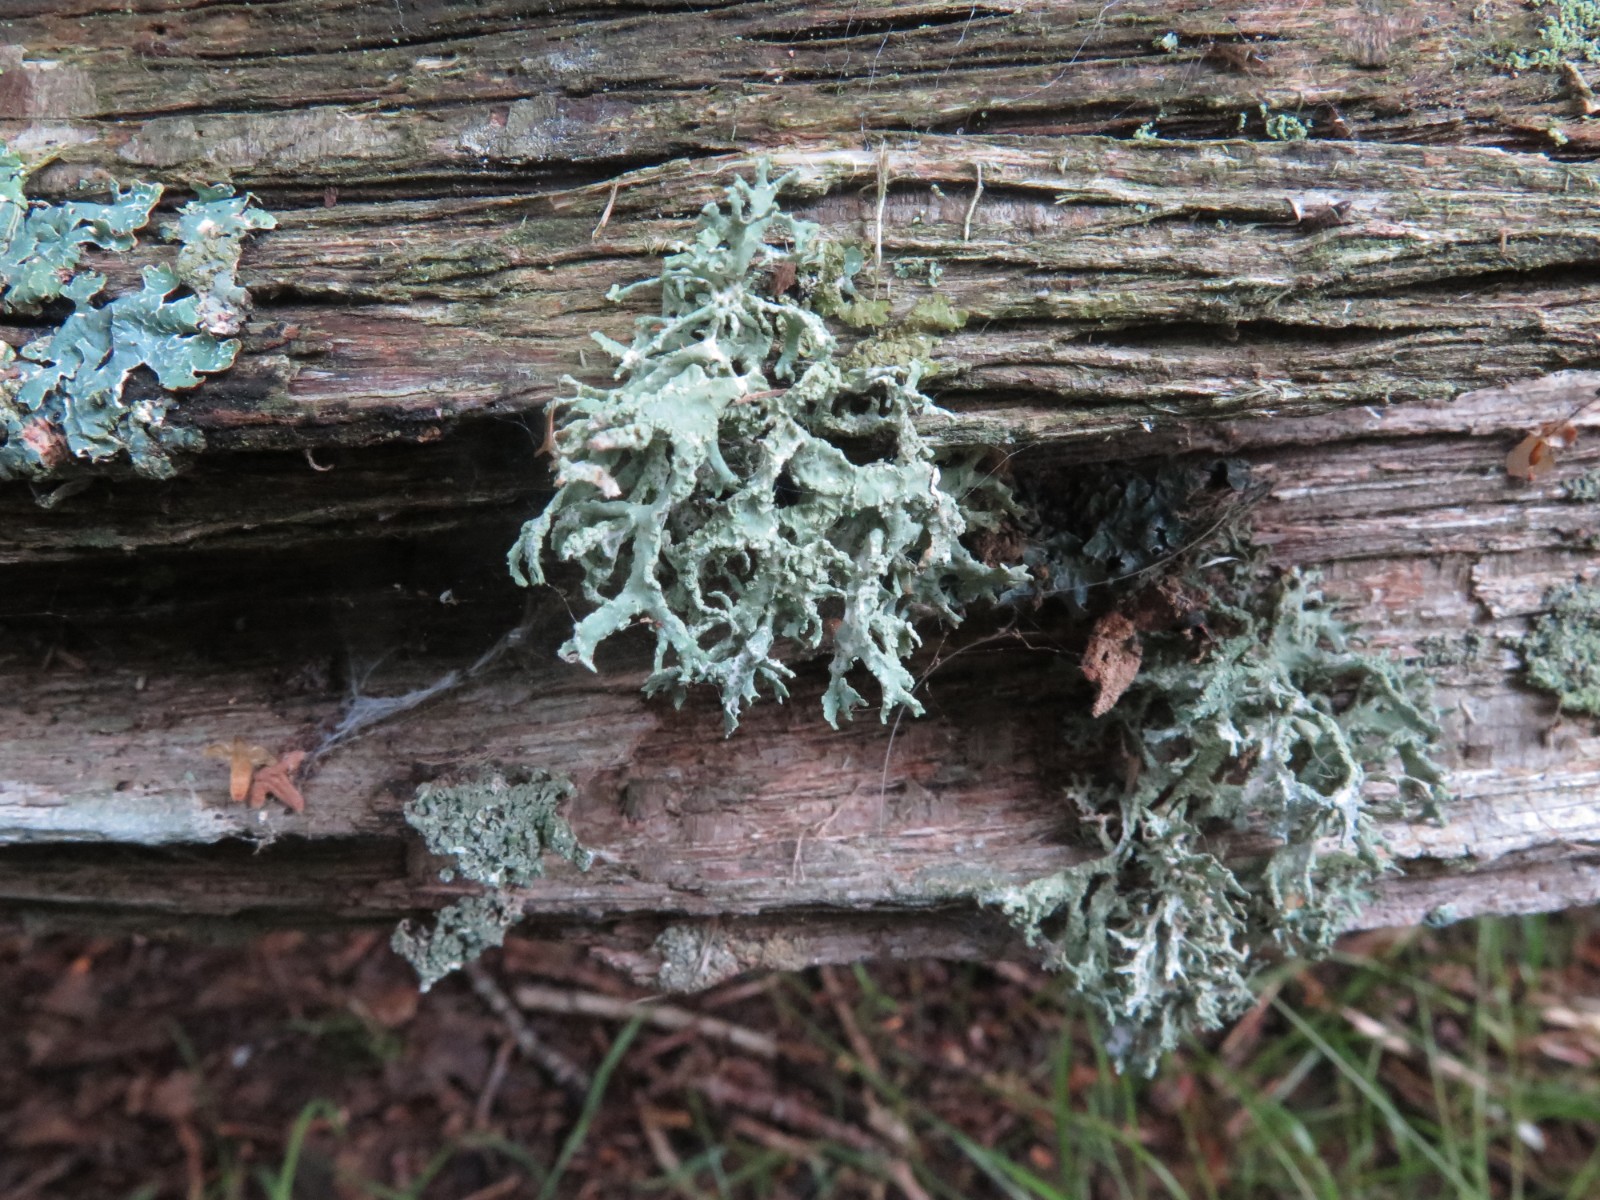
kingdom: Fungi
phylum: Ascomycota
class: Lecanoromycetes
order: Lecanorales
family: Parmeliaceae
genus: Evernia
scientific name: Evernia prunastri
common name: almindelig slåenlav
